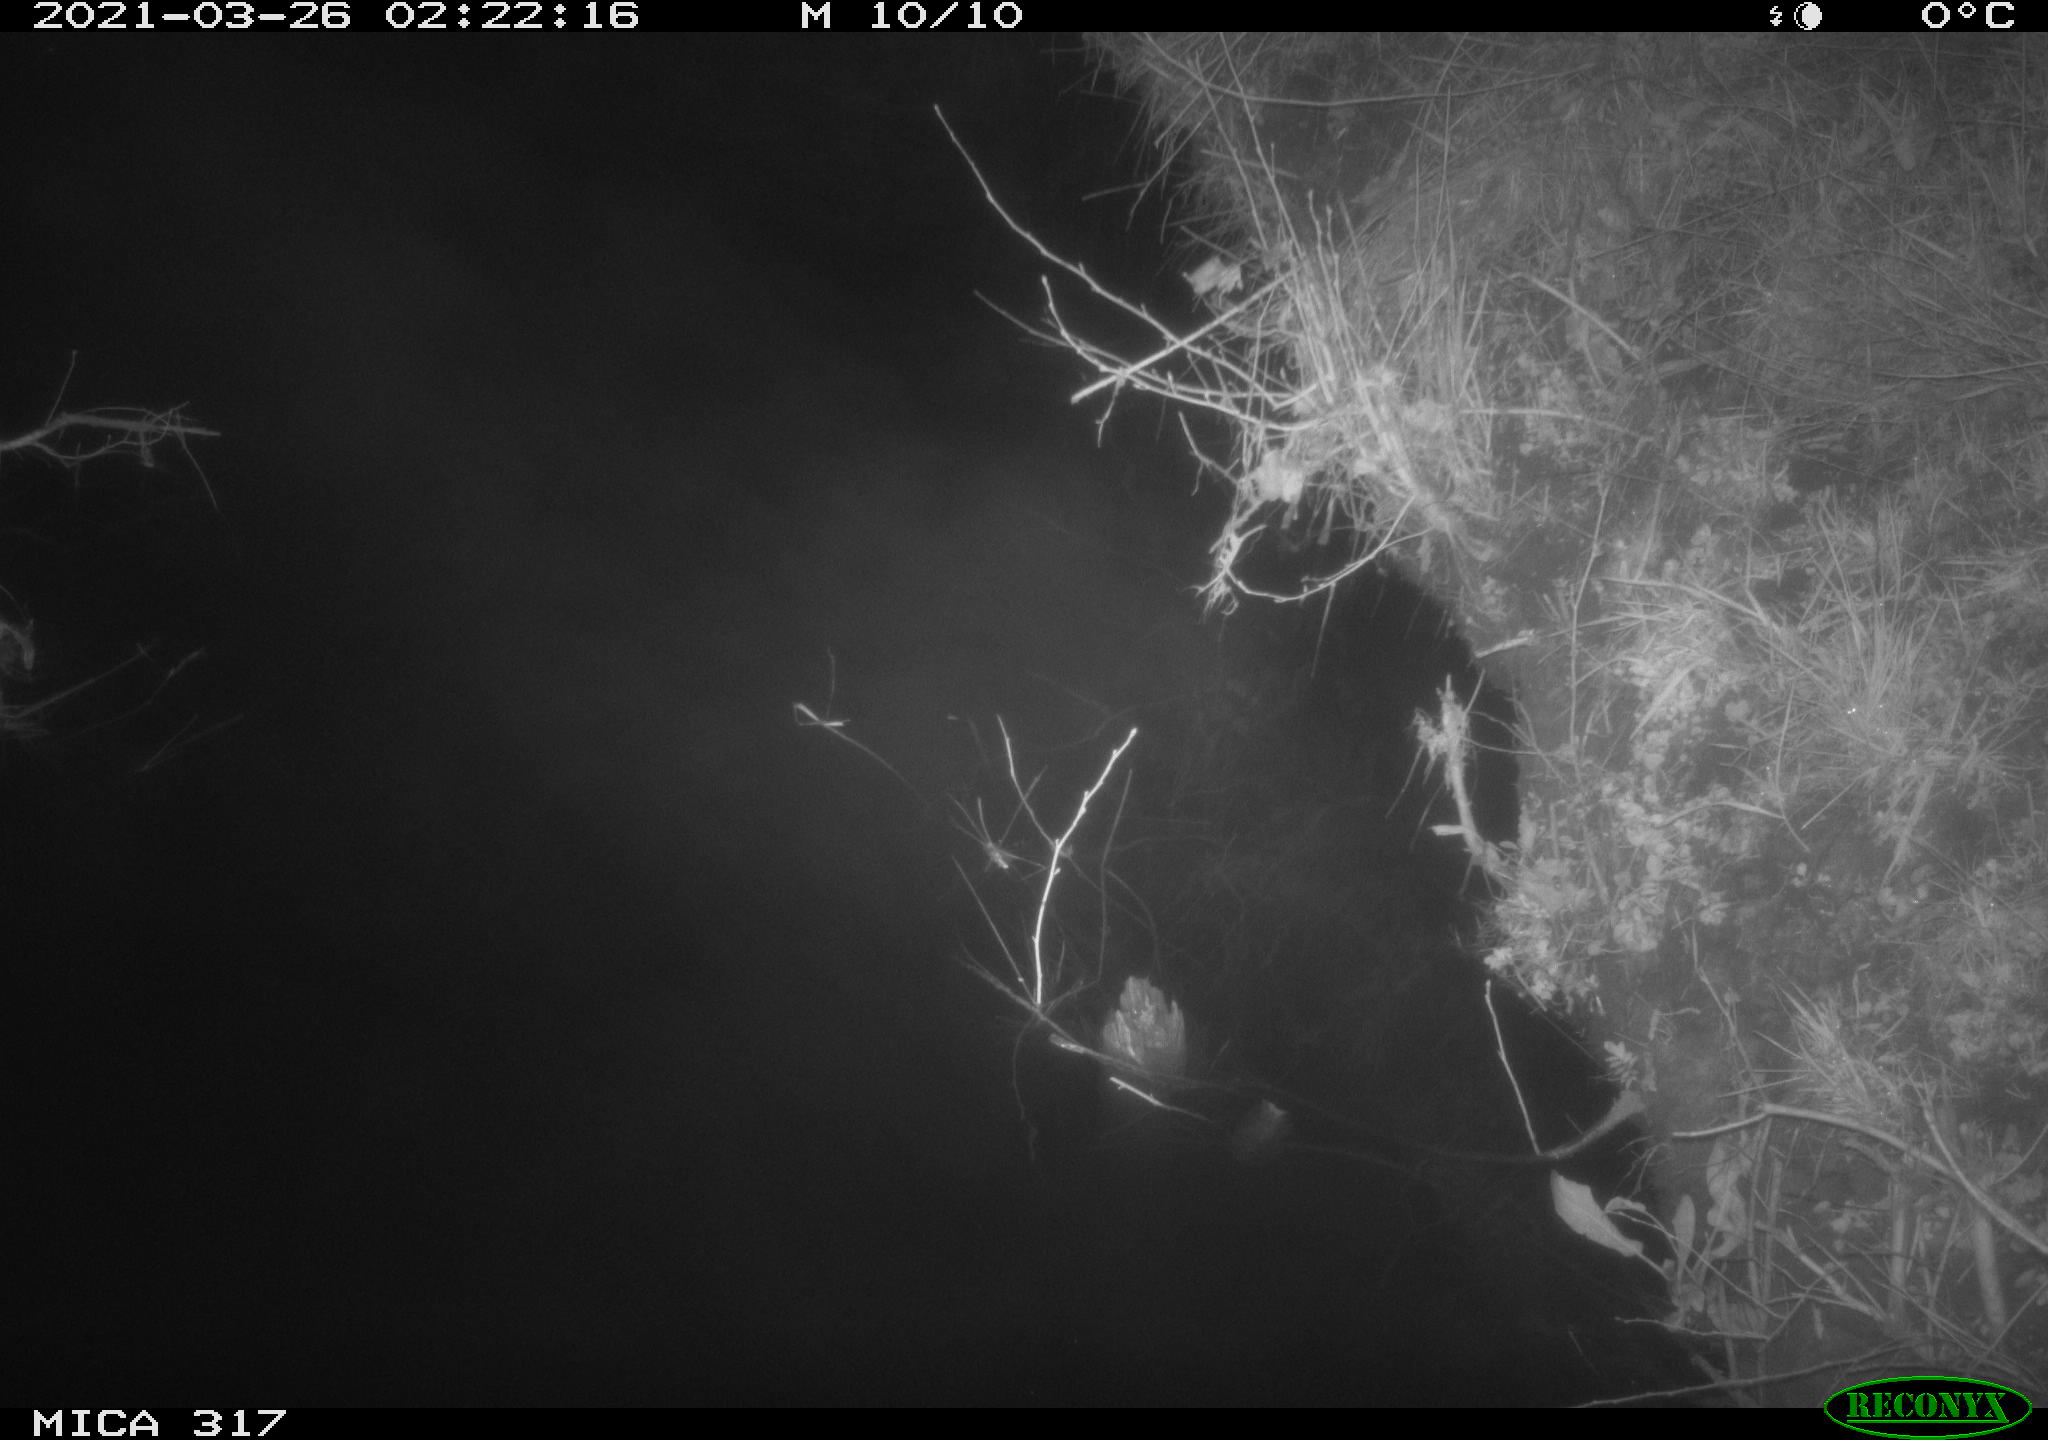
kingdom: Animalia
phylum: Chordata
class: Aves
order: Anseriformes
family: Anatidae
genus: Anas
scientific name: Anas platyrhynchos
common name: Mallard
